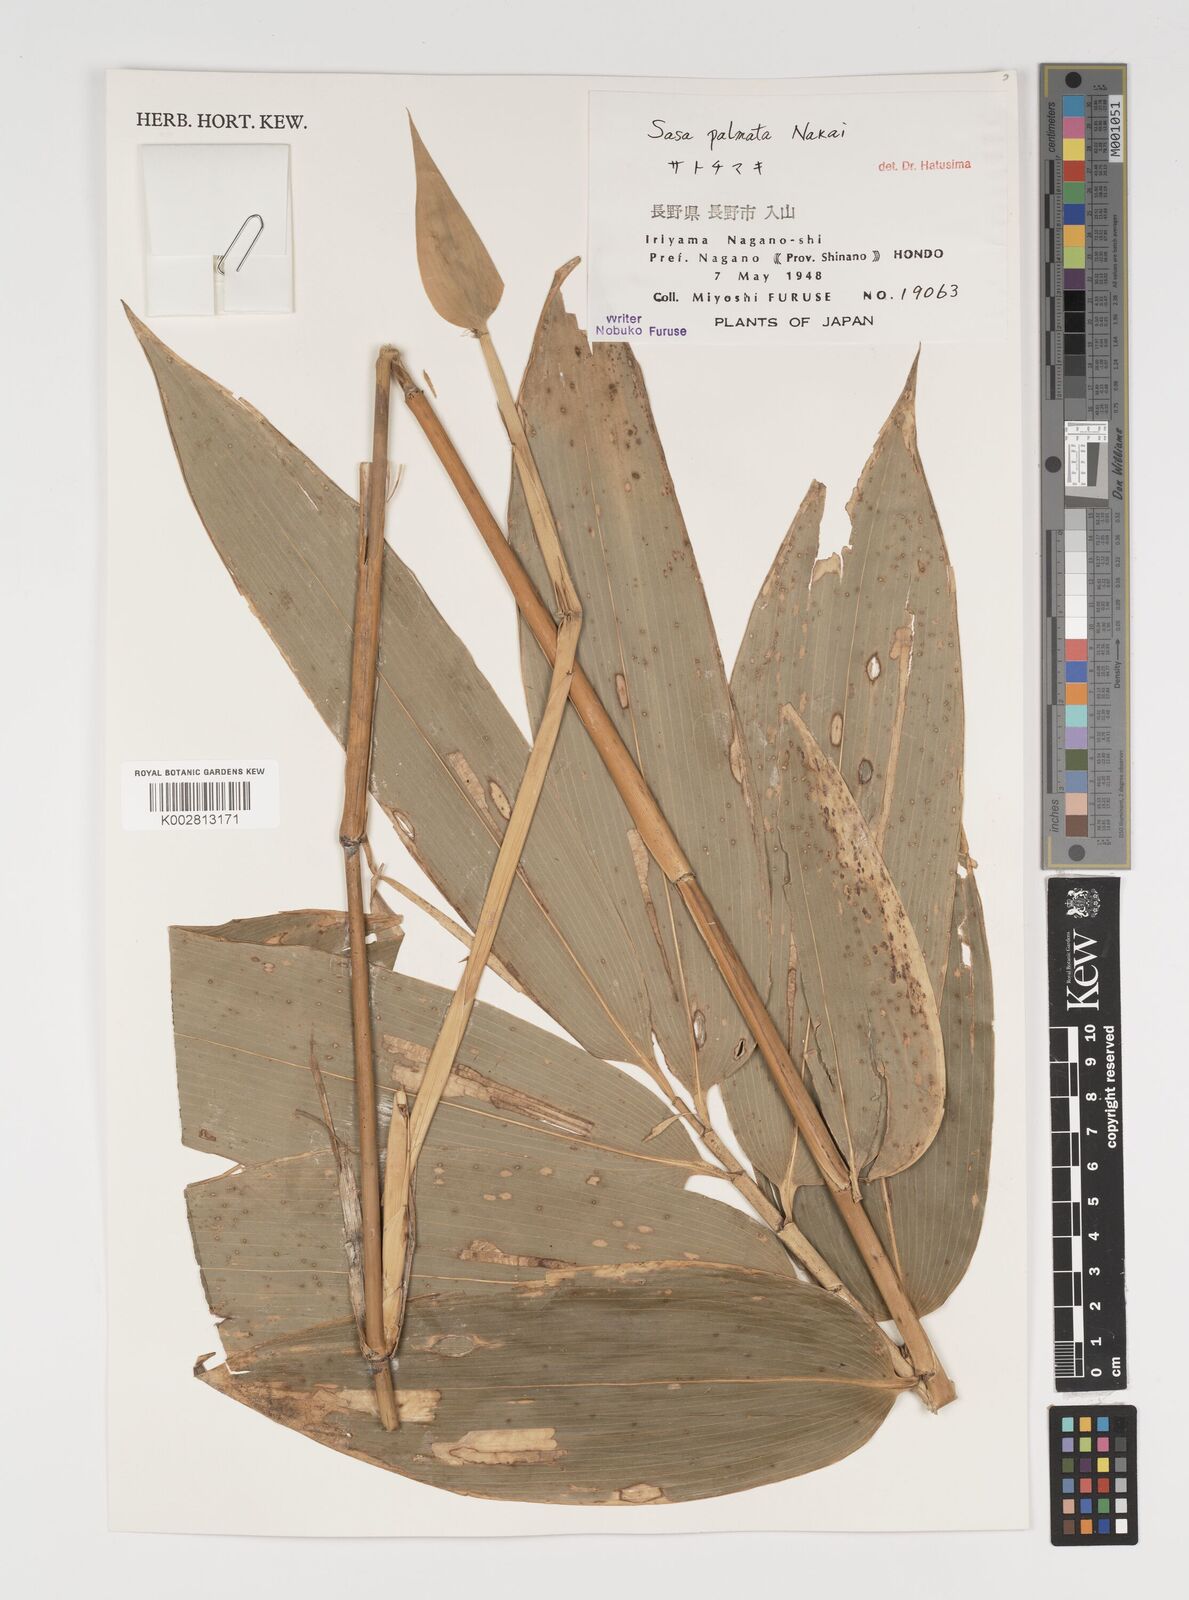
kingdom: Plantae
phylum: Tracheophyta
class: Liliopsida
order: Poales
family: Poaceae
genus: Sasa
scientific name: Sasa palmata
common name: Broad-leaved bamboo
